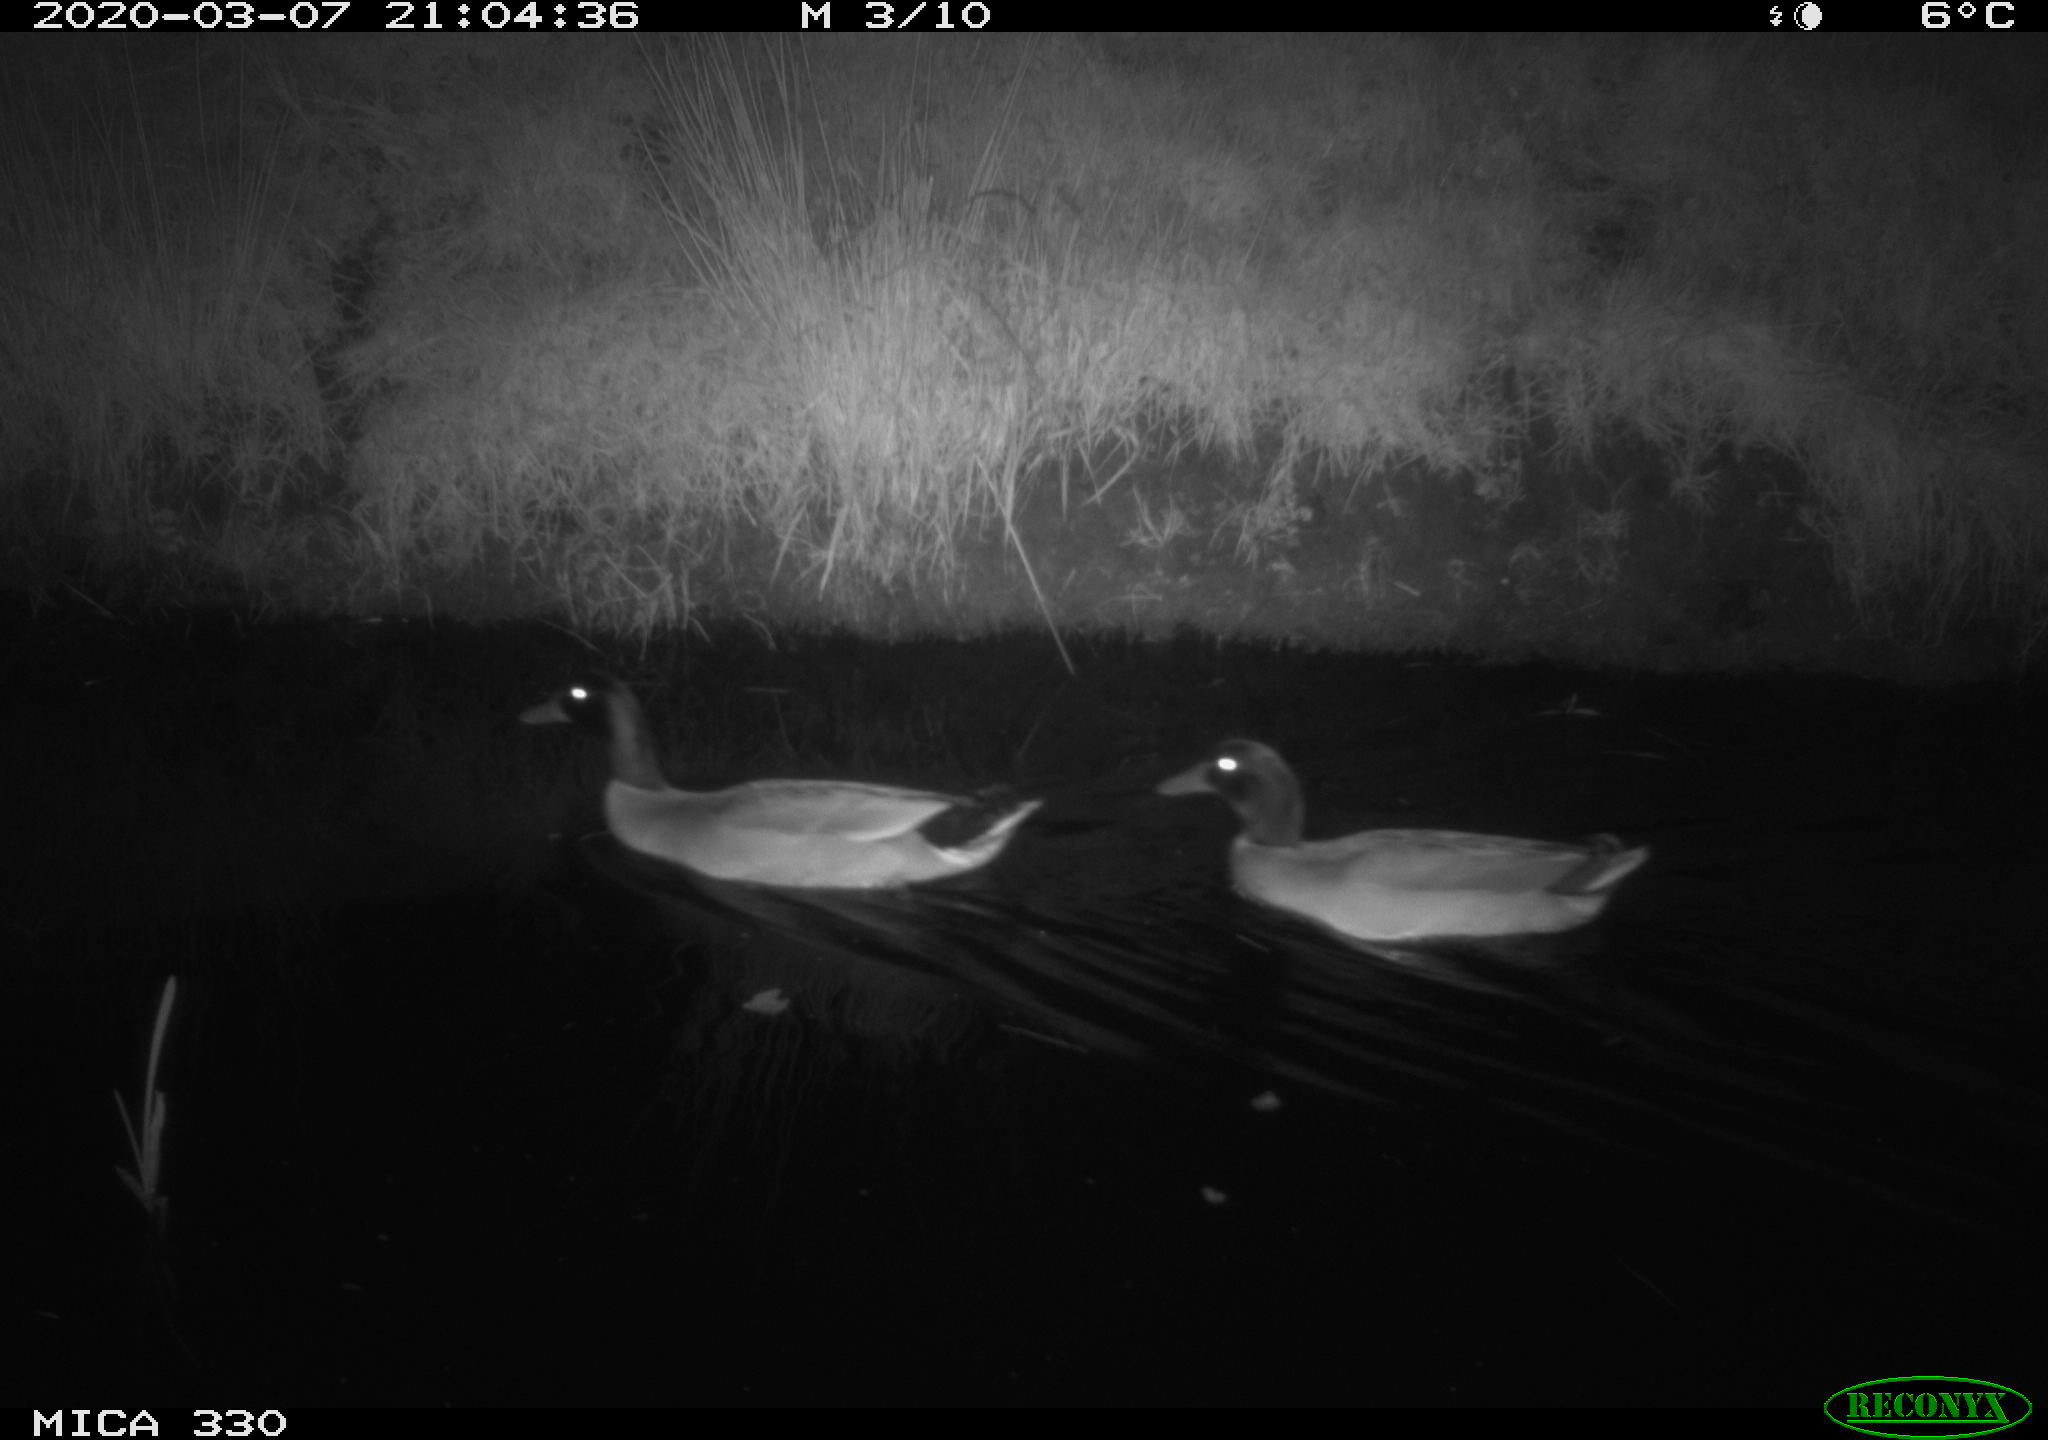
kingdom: Animalia
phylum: Chordata
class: Aves
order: Anseriformes
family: Anatidae
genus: Anas
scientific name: Anas platyrhynchos
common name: Mallard
